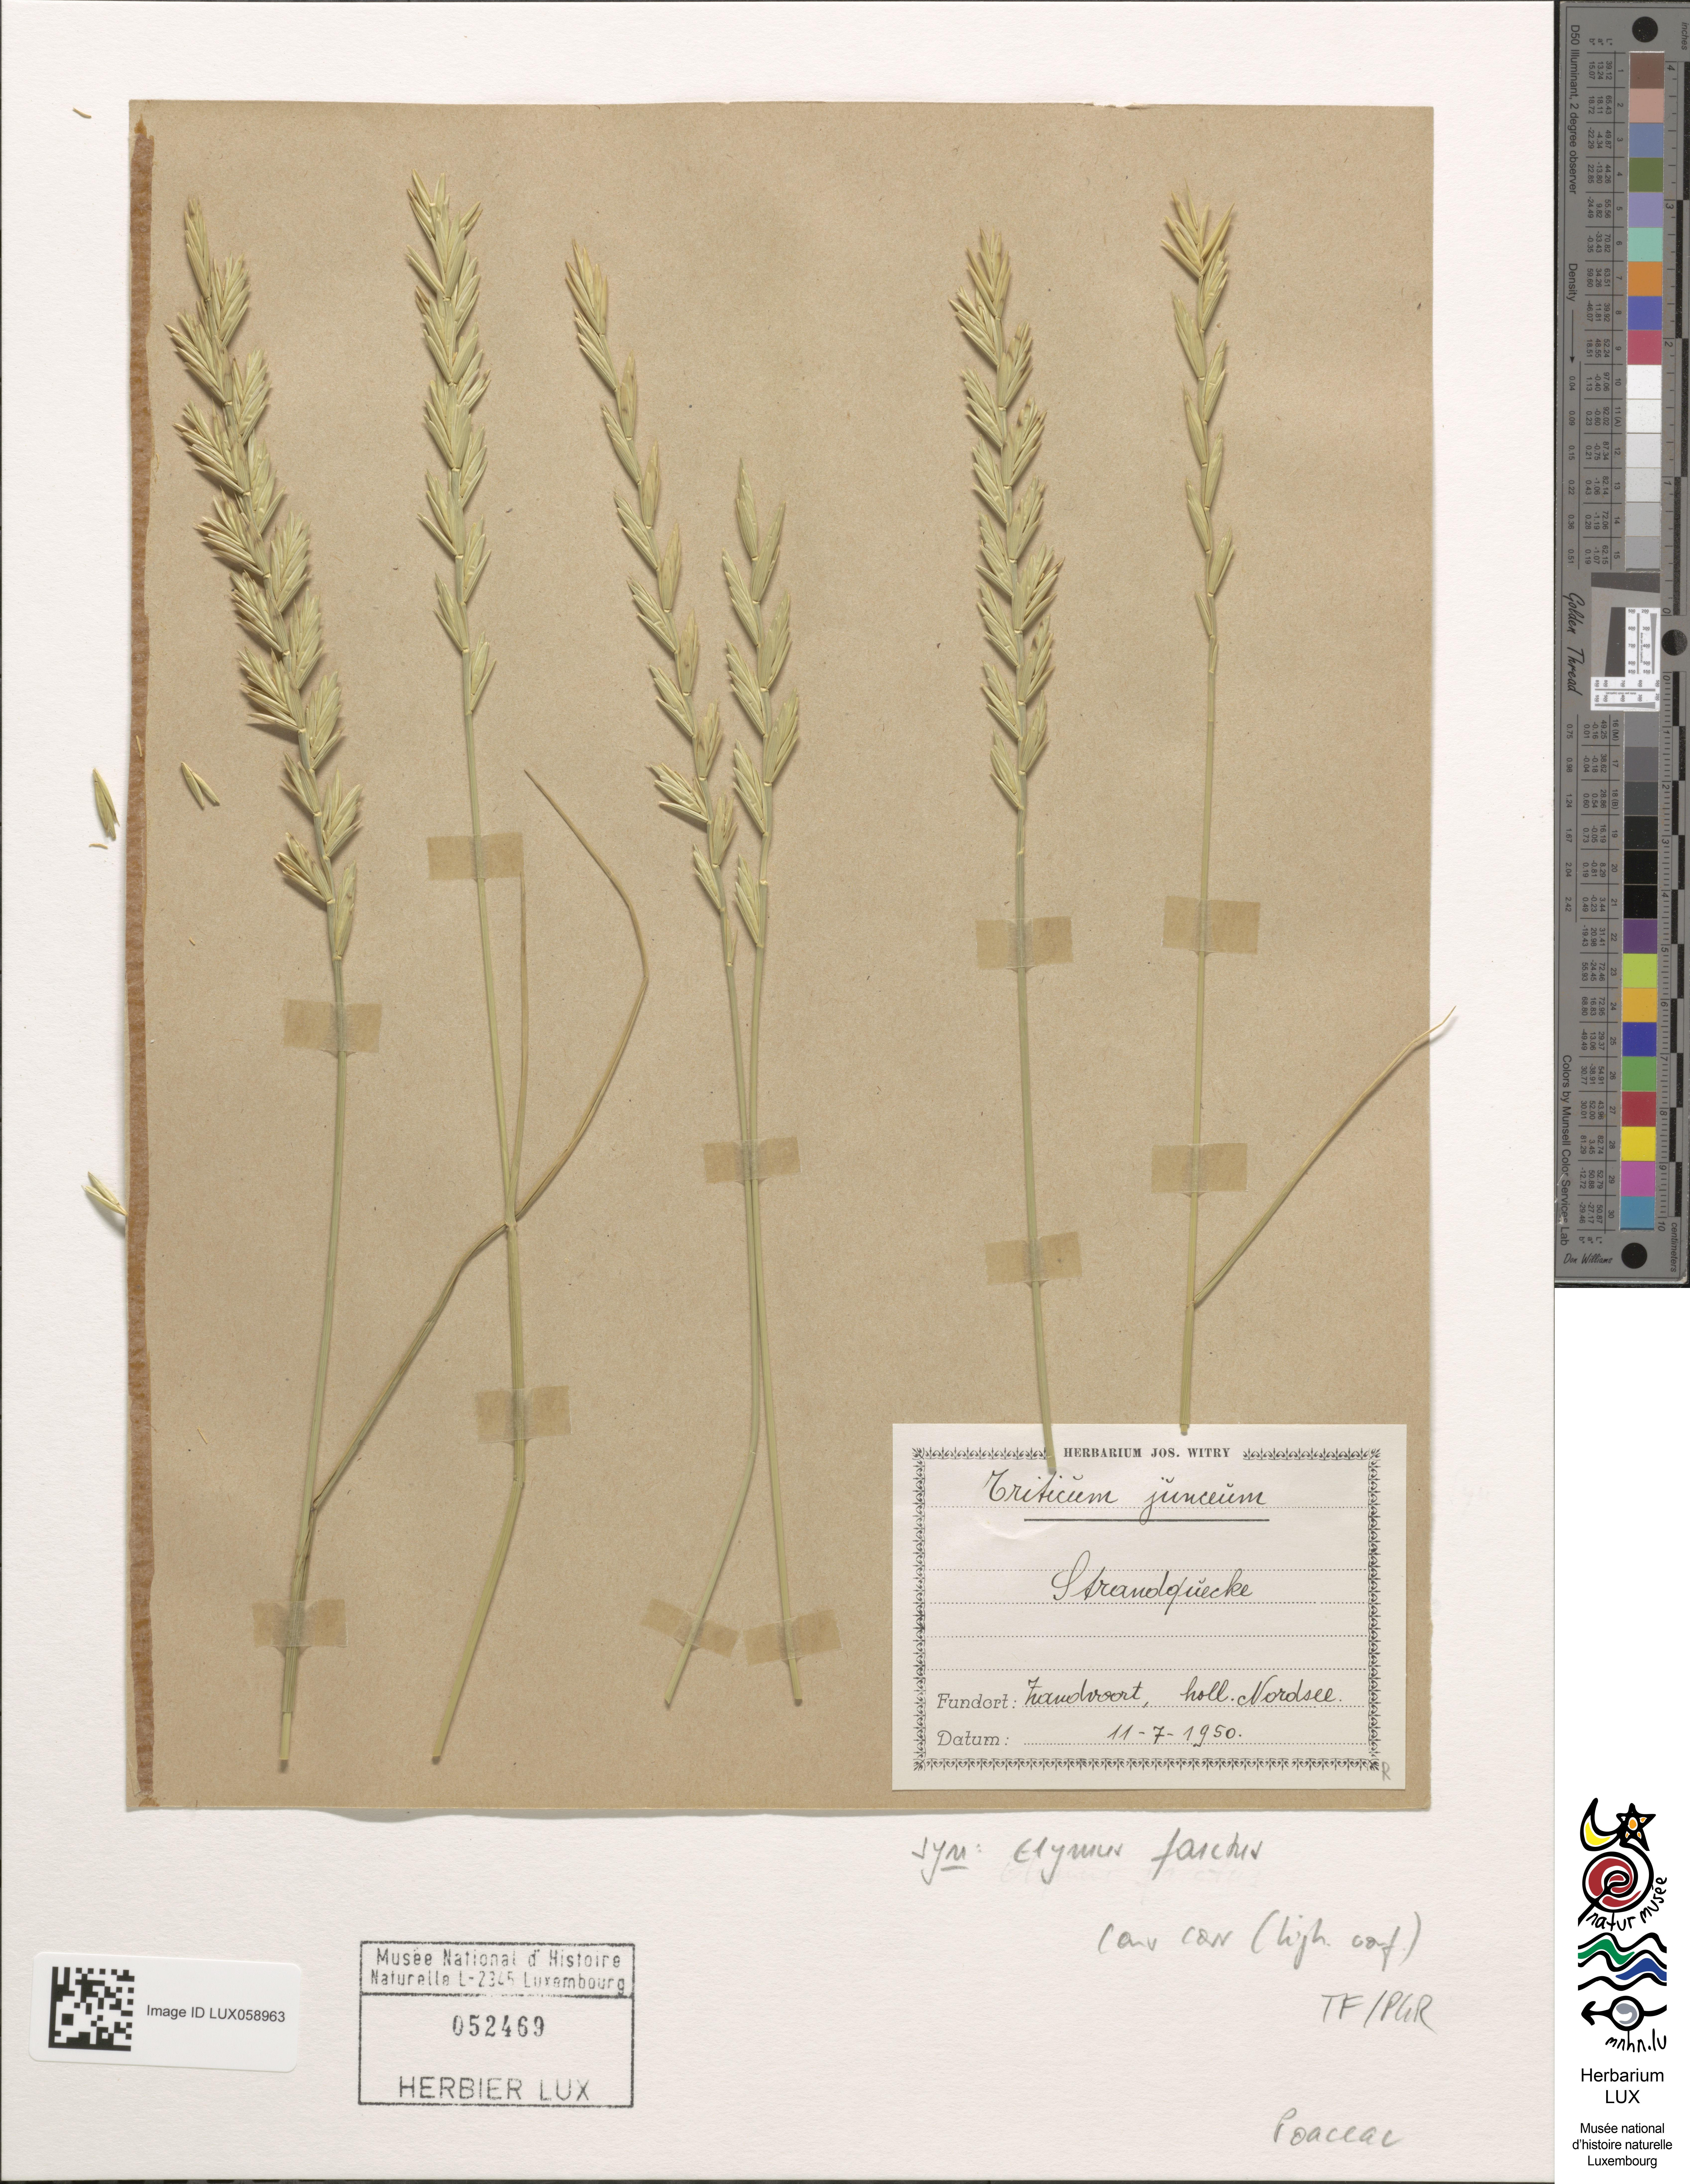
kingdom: Plantae
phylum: Tracheophyta
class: Liliopsida
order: Poales
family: Poaceae
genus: Thinopyrum
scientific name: Thinopyrum junceum
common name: Russian wheatgrass
